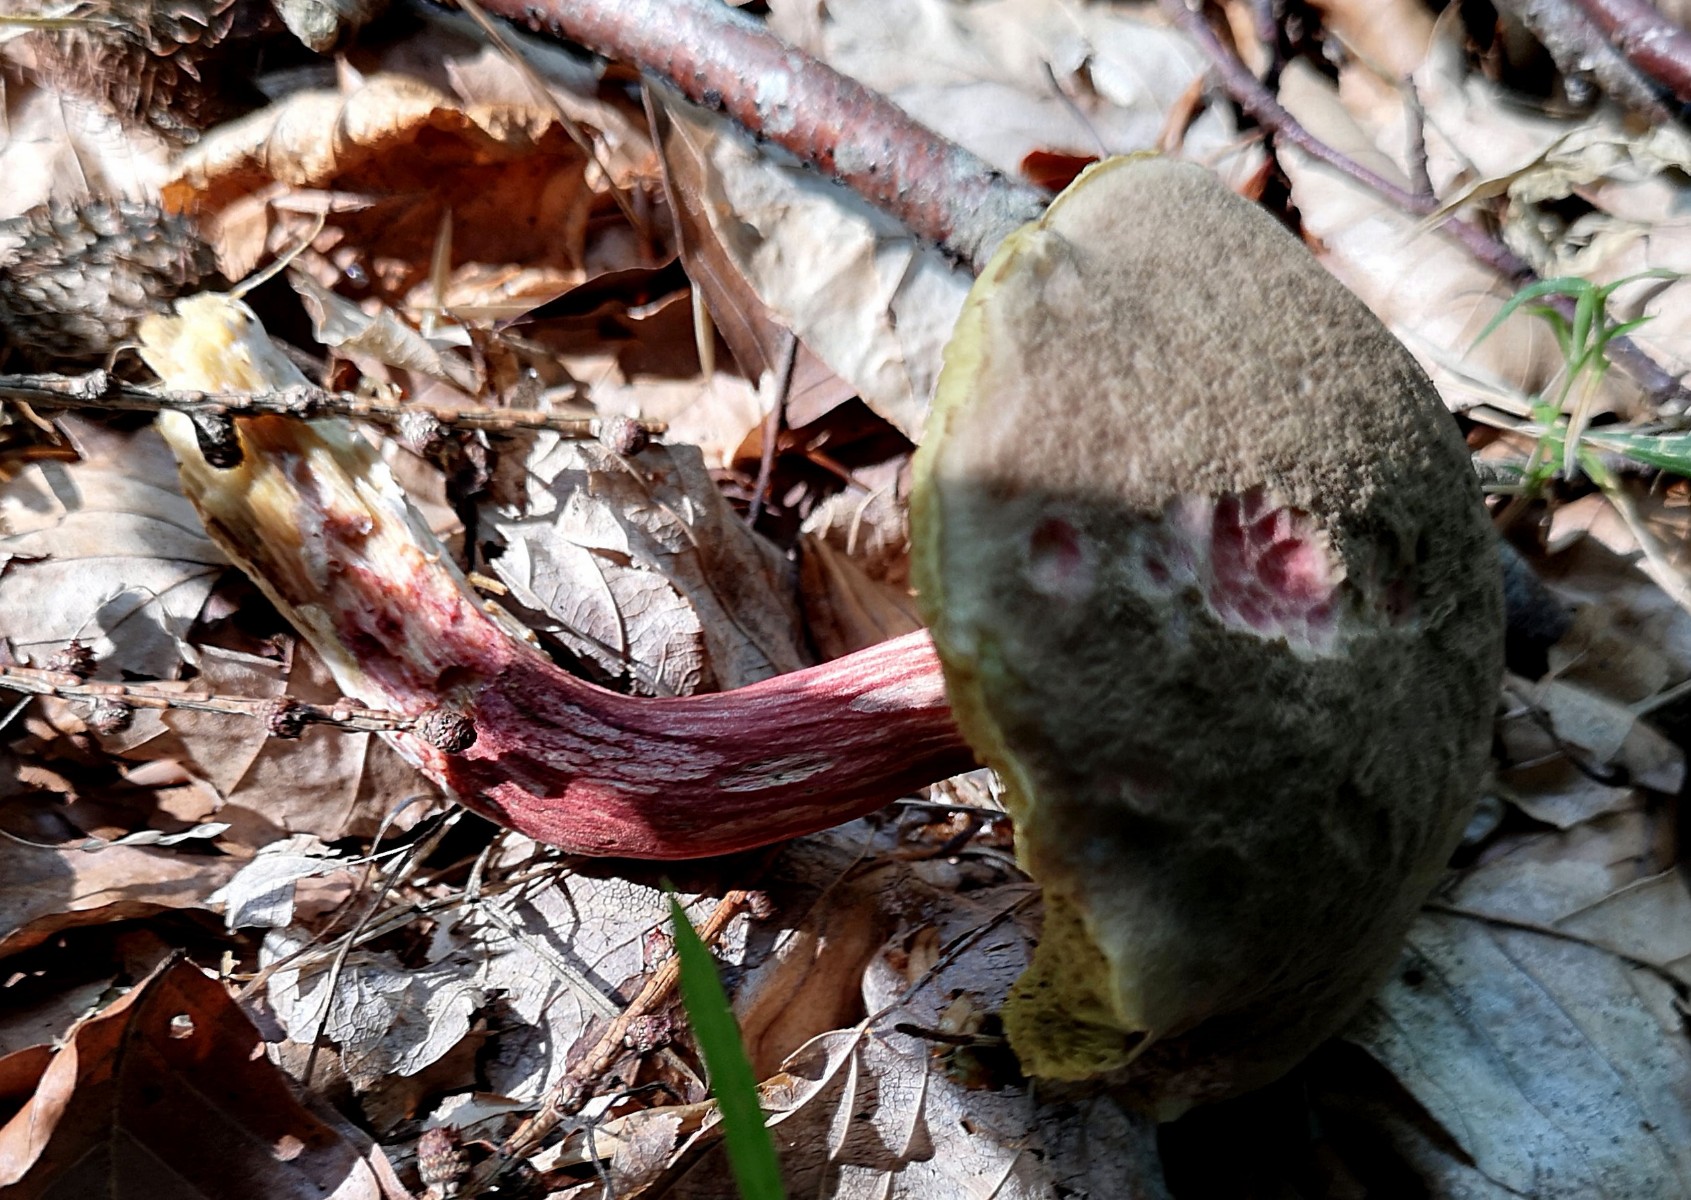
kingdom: Fungi
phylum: Basidiomycota
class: Agaricomycetes
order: Boletales
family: Boletaceae
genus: Xerocomellus
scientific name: Xerocomellus chrysenteron
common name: rødsprukken rørhat
